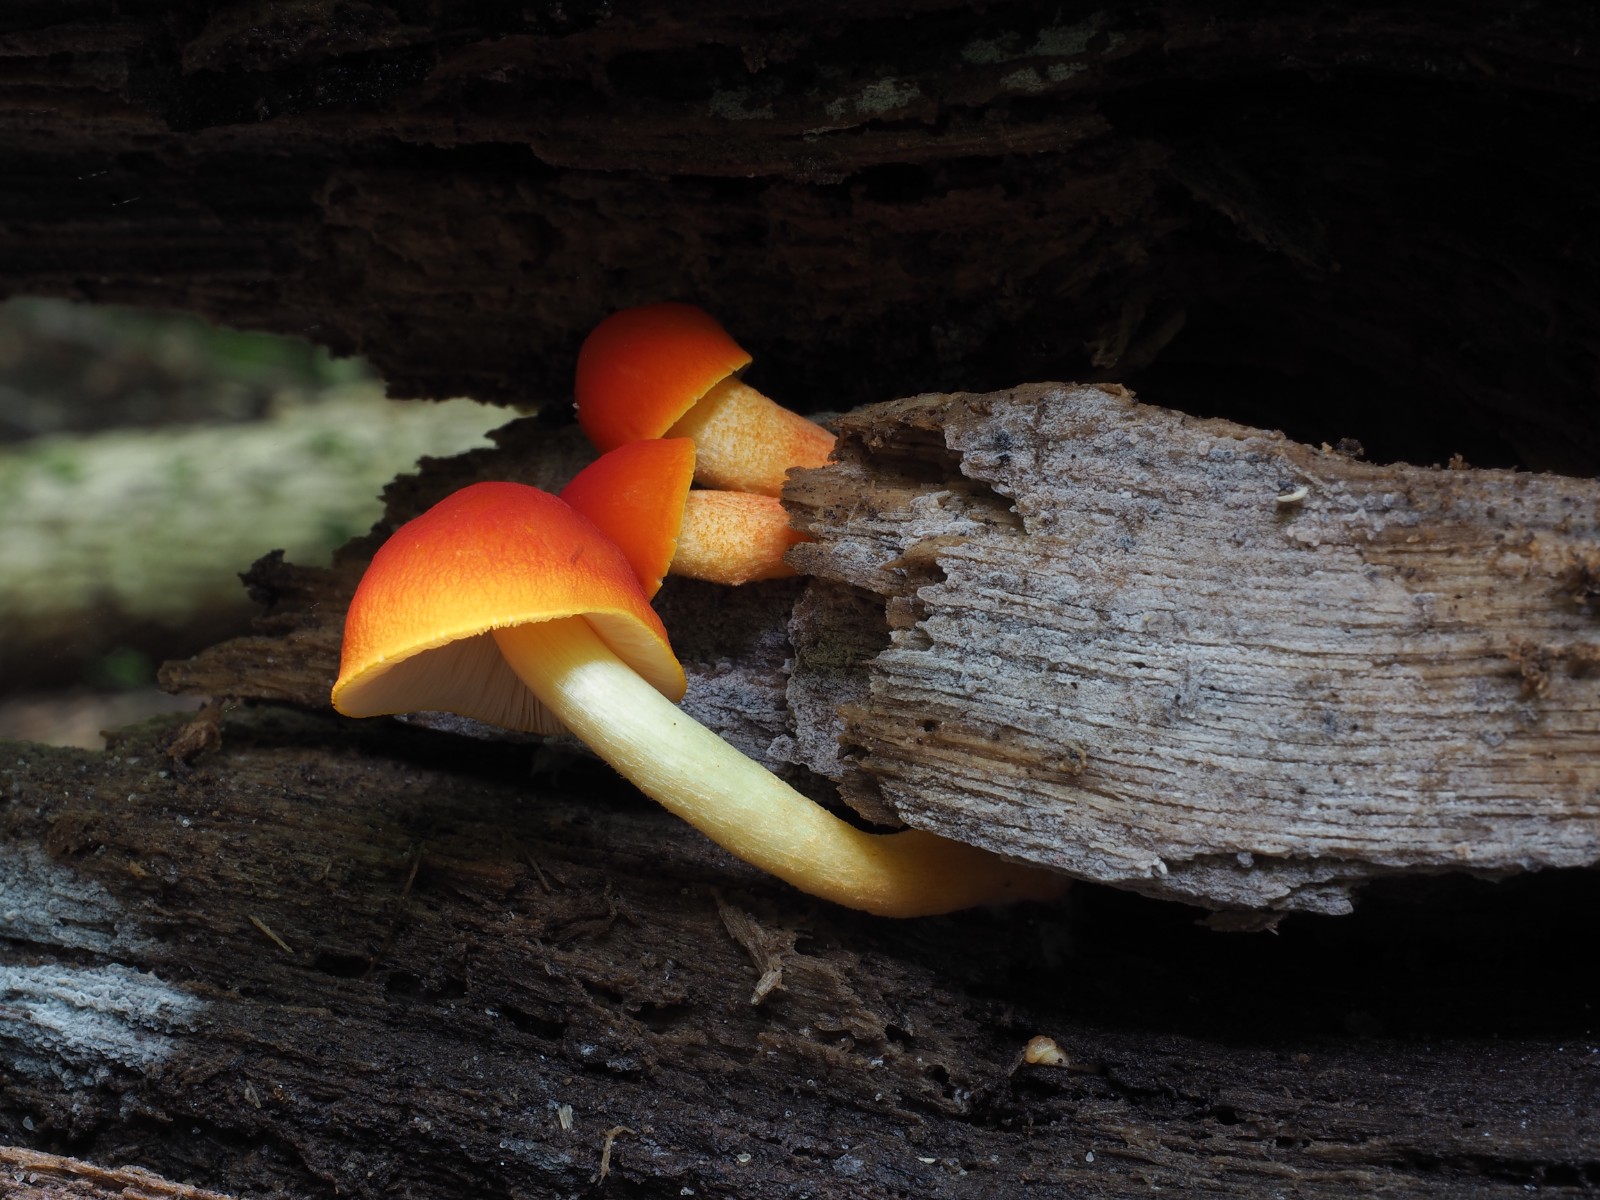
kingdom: Fungi
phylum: Basidiomycota
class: Agaricomycetes
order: Agaricales
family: Pluteaceae
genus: Pluteus
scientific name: Pluteus aurantiorugosus
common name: skarlagen-skærmhat
